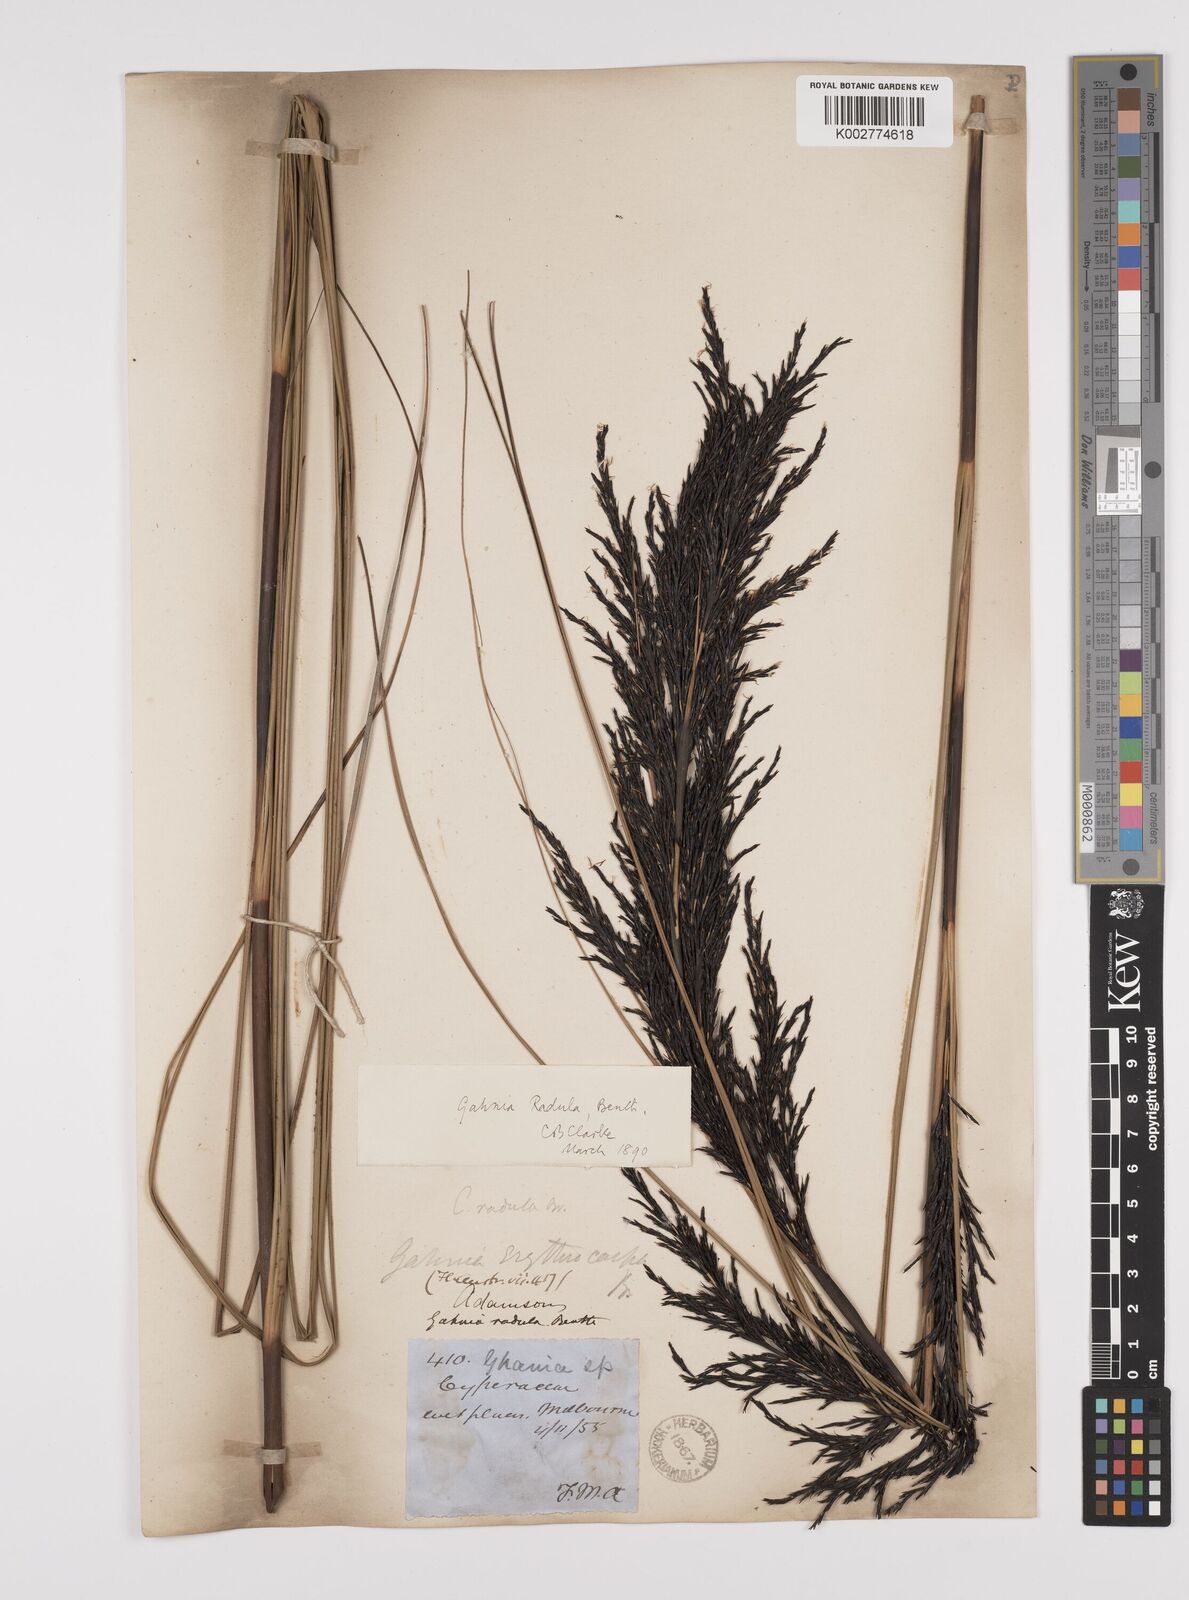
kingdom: Plantae
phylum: Tracheophyta
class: Liliopsida
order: Poales
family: Cyperaceae
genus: Gahnia
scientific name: Gahnia radula
